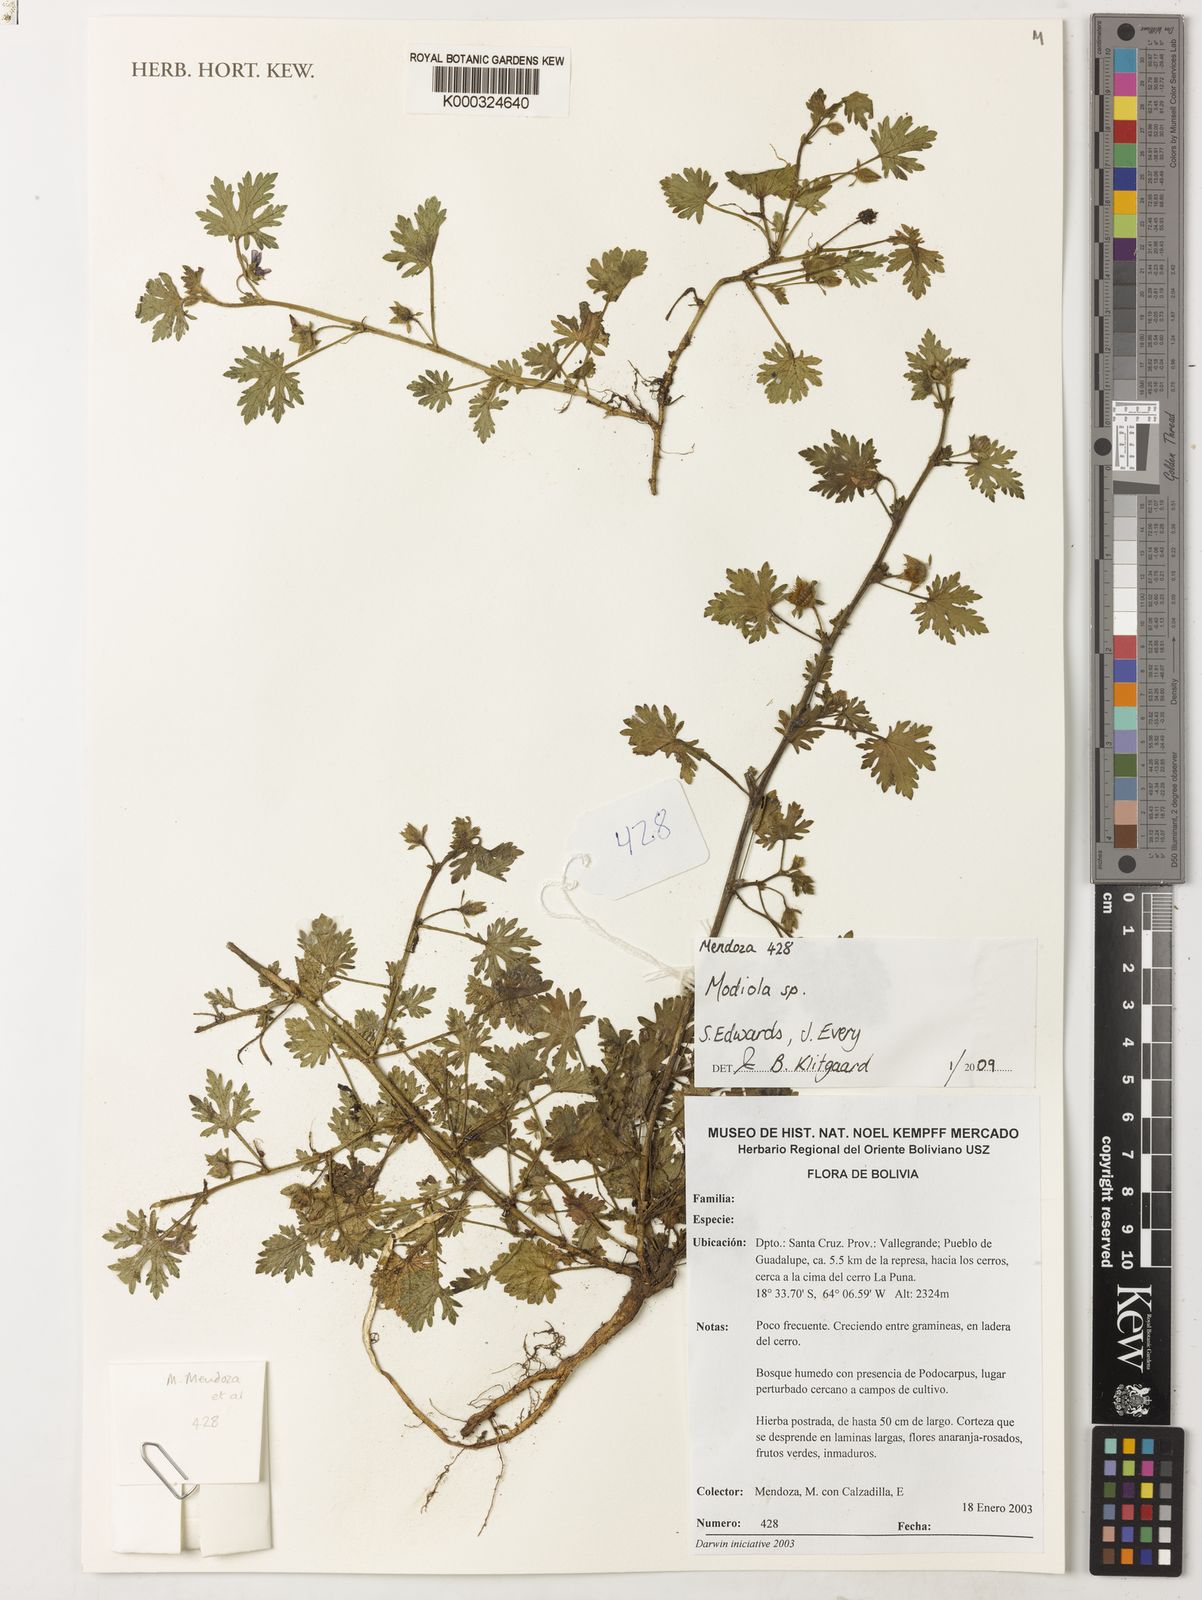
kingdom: Plantae
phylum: Tracheophyta
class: Magnoliopsida
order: Malvales
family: Malvaceae
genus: Modiola
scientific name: Modiola
